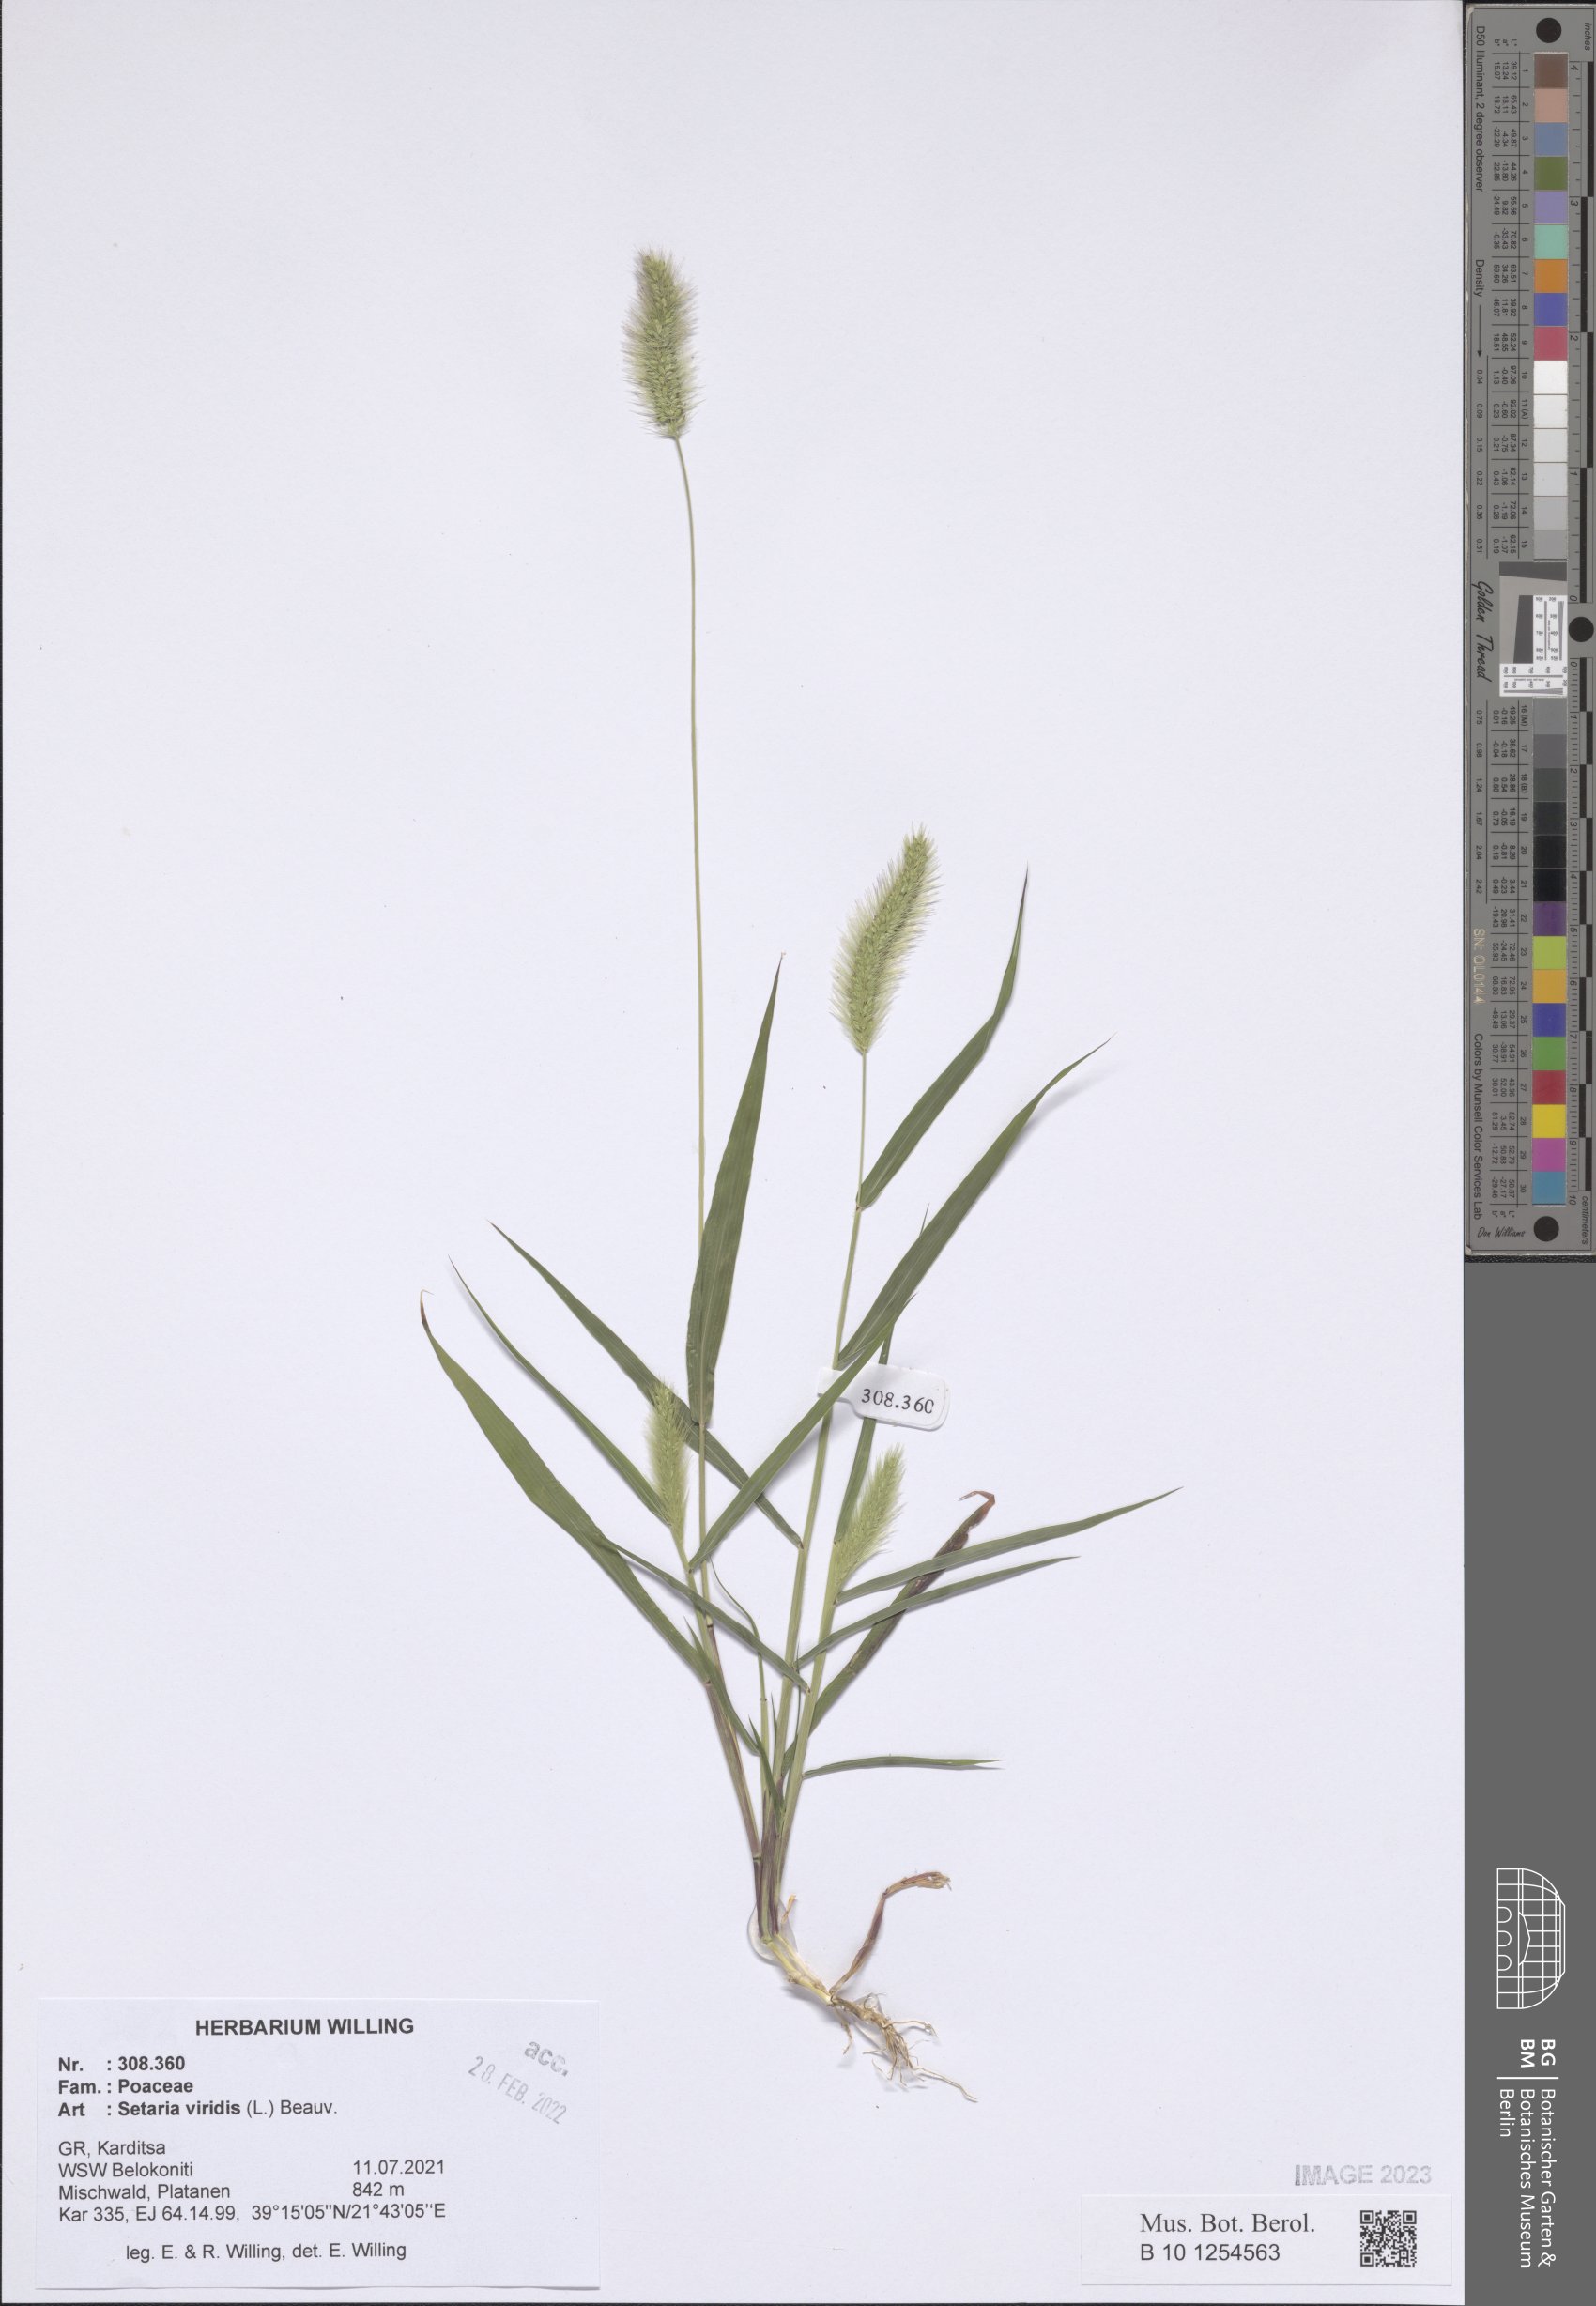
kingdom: Plantae
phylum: Tracheophyta
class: Liliopsida
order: Poales
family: Poaceae
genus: Setaria
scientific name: Setaria viridis
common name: Green bristlegrass
